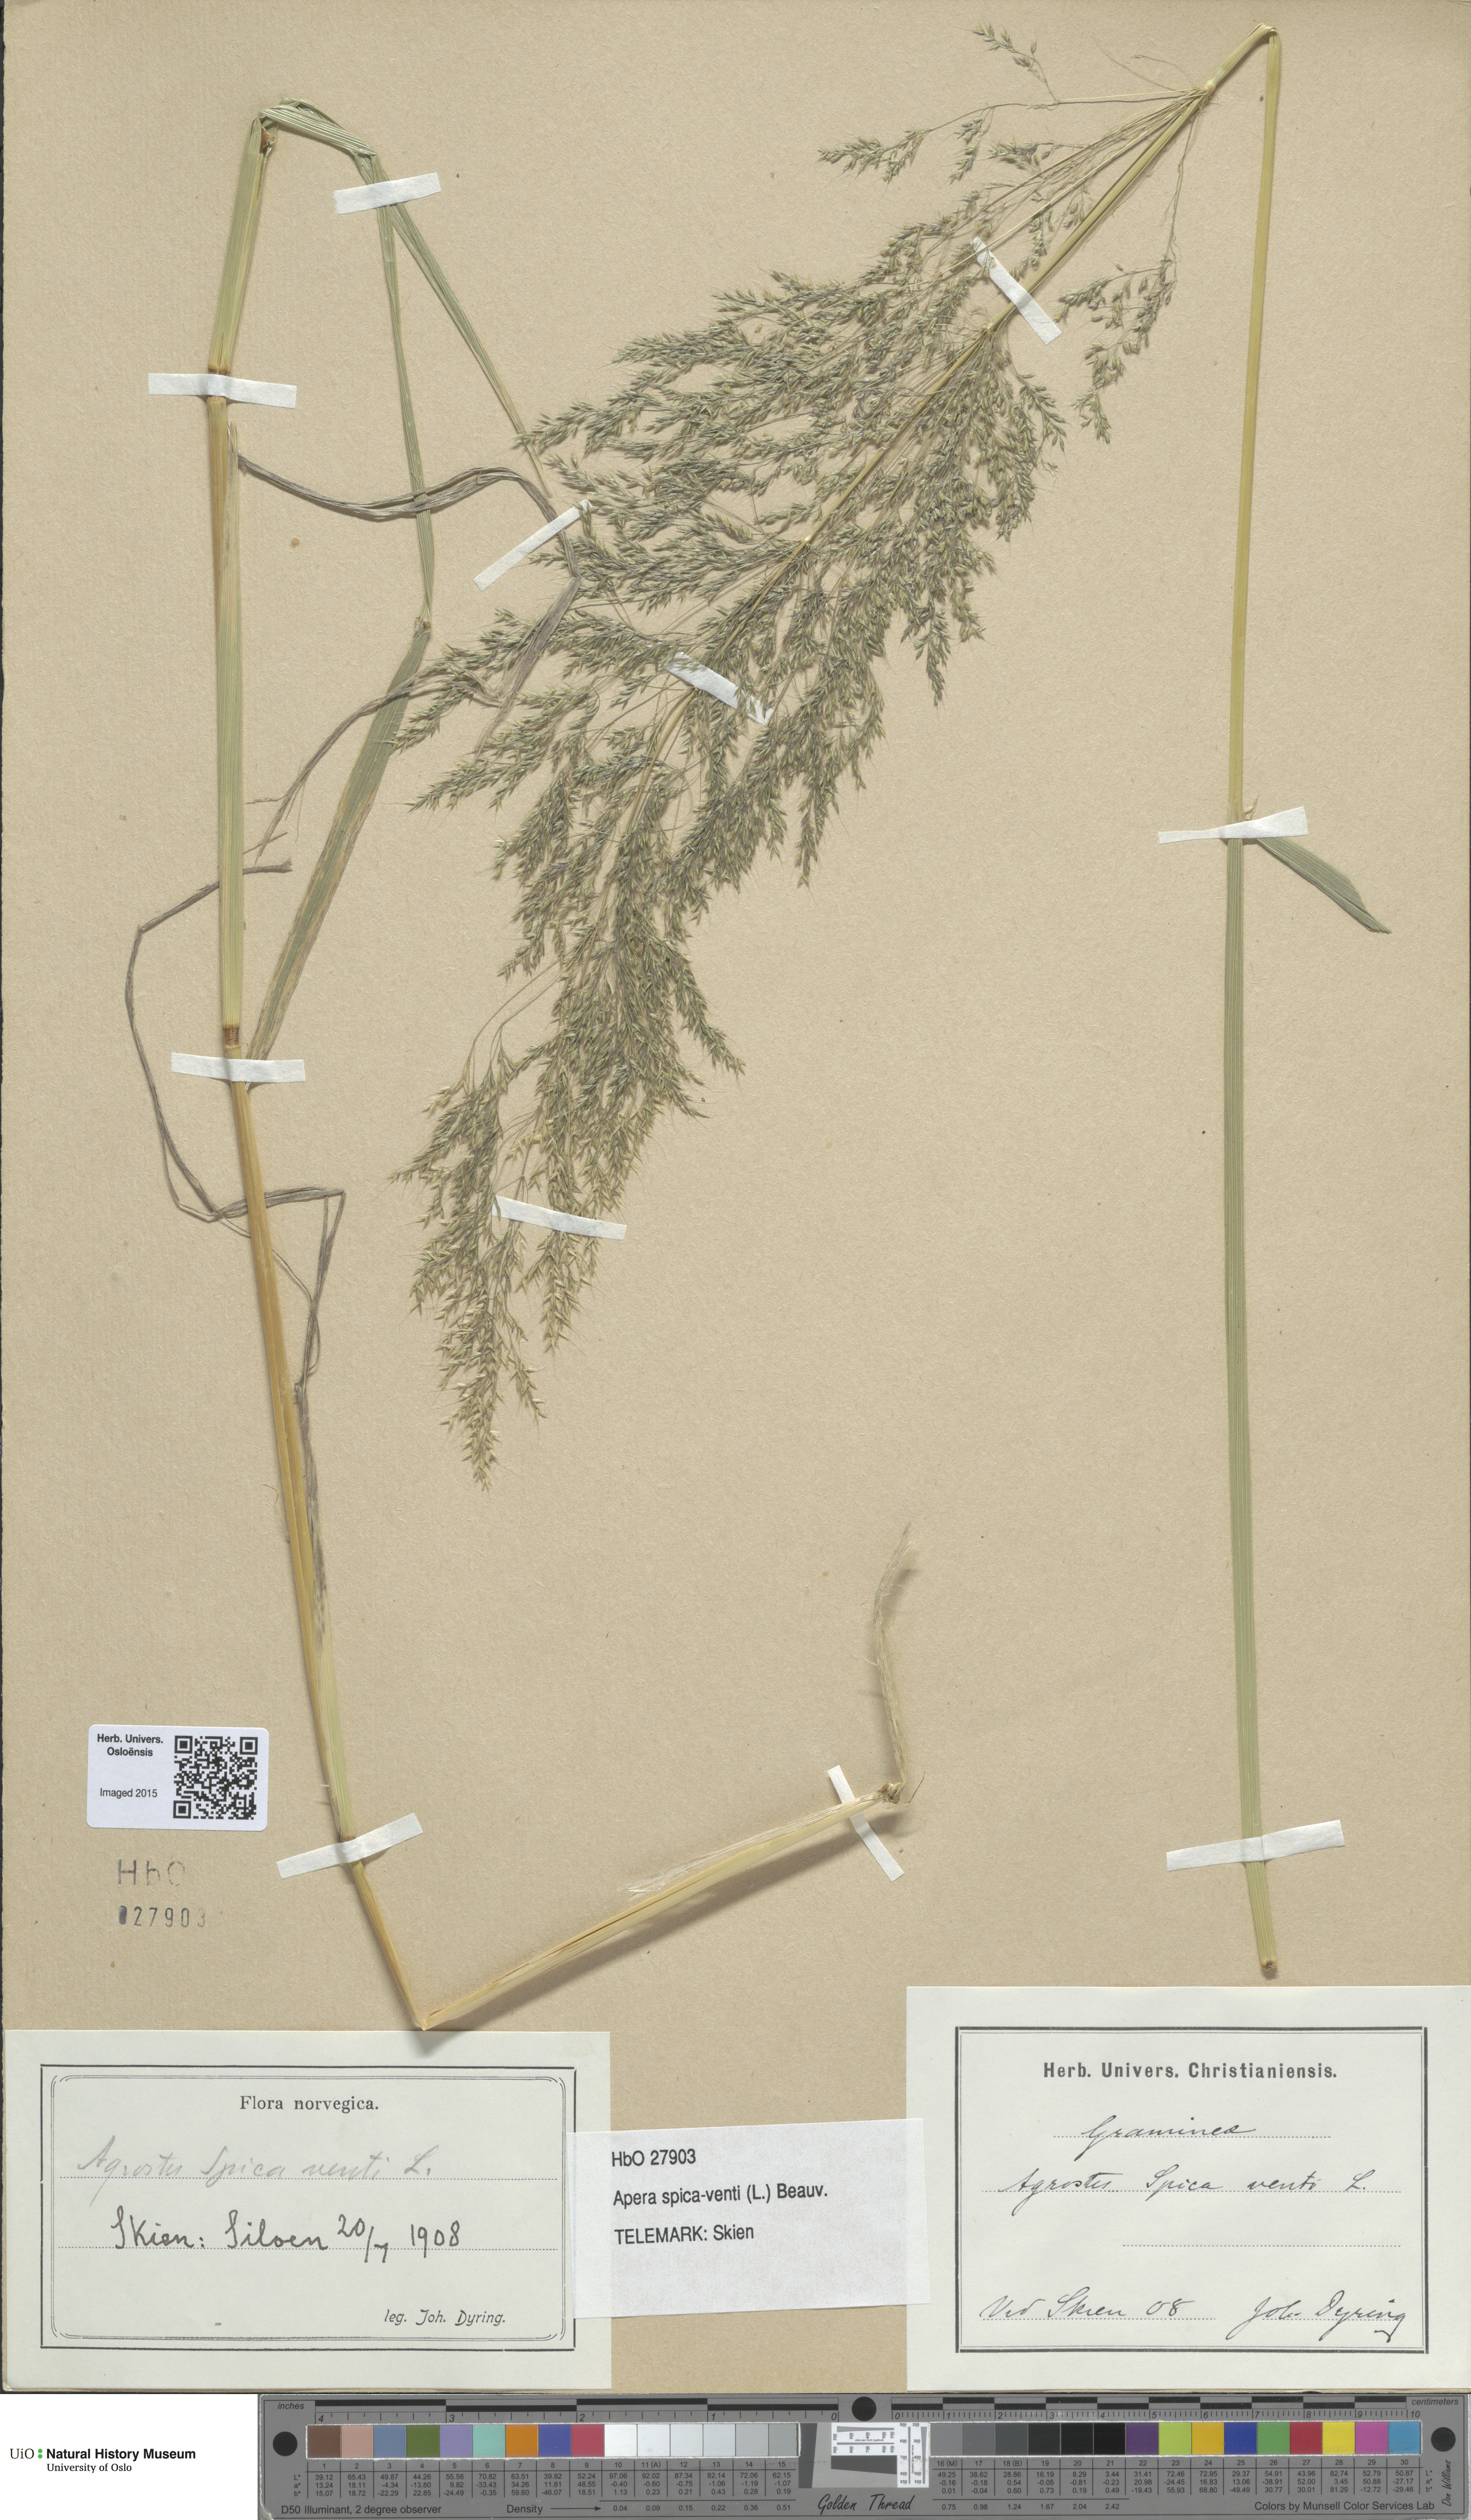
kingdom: Plantae
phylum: Tracheophyta
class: Liliopsida
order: Poales
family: Poaceae
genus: Apera
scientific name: Apera spica-venti
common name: Loose silky-bent
